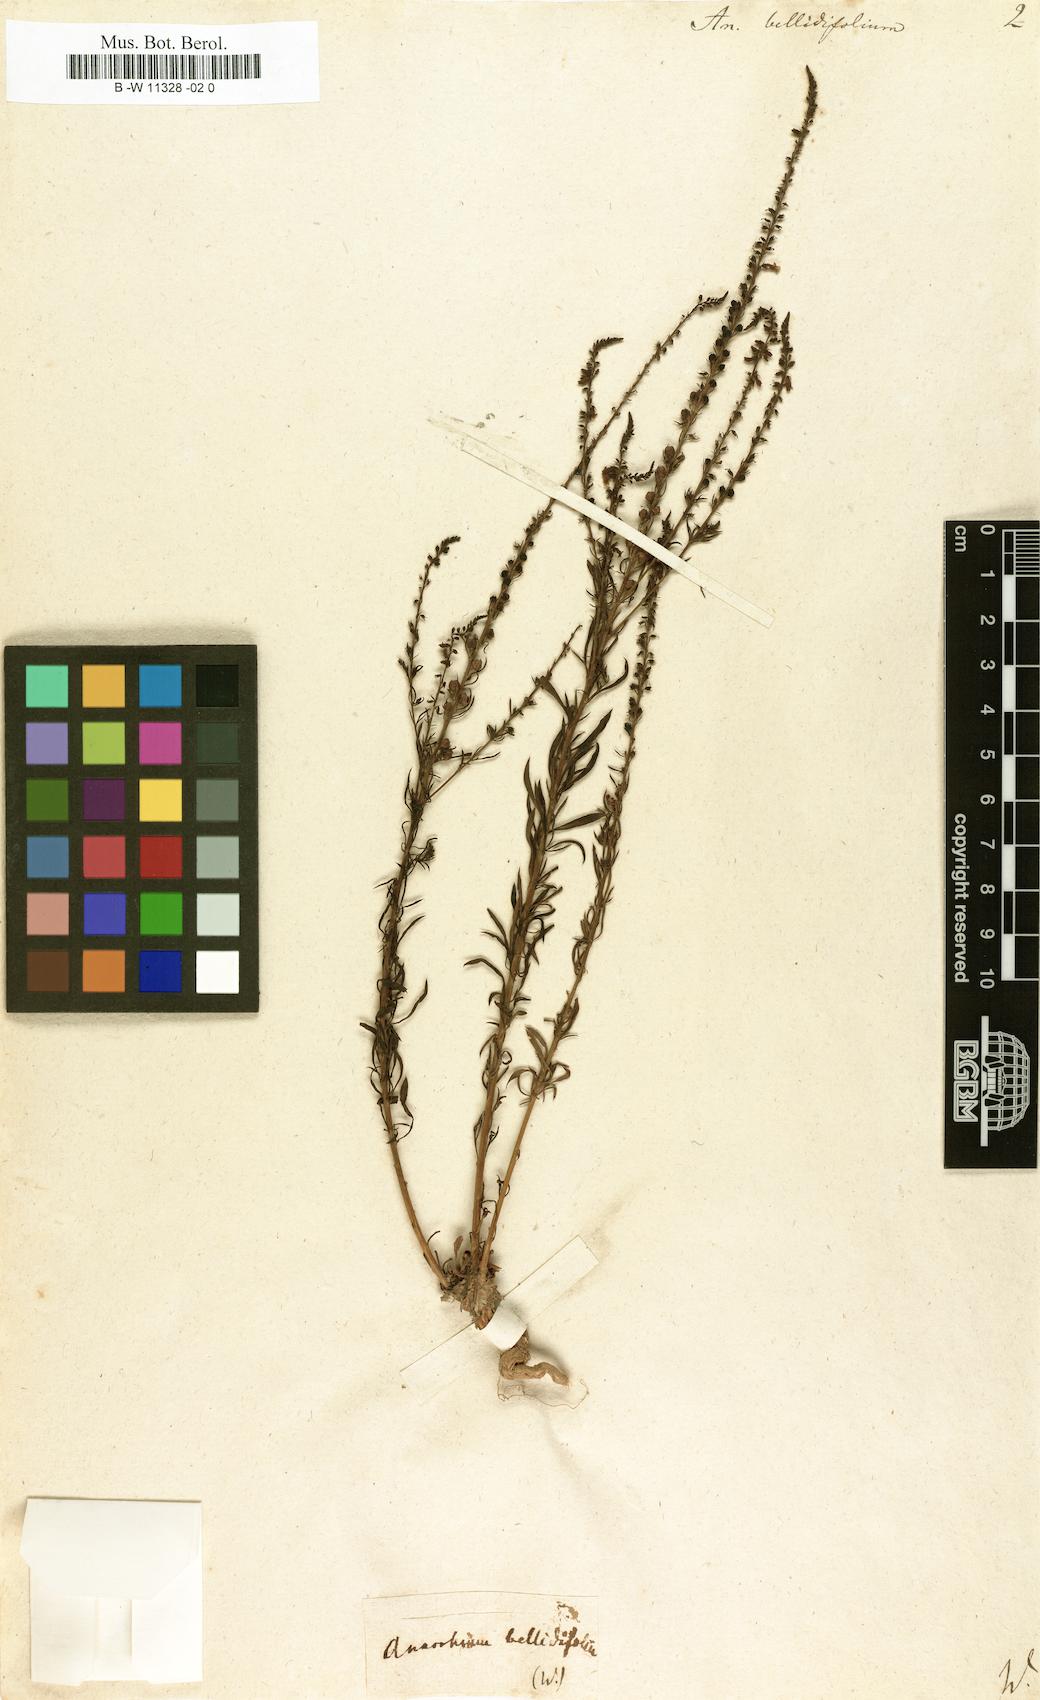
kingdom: Plantae
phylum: Tracheophyta
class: Magnoliopsida
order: Lamiales
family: Plantaginaceae
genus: Anarrhinum
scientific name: Anarrhinum bellidifolium
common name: Daisy-leaved toadflax
